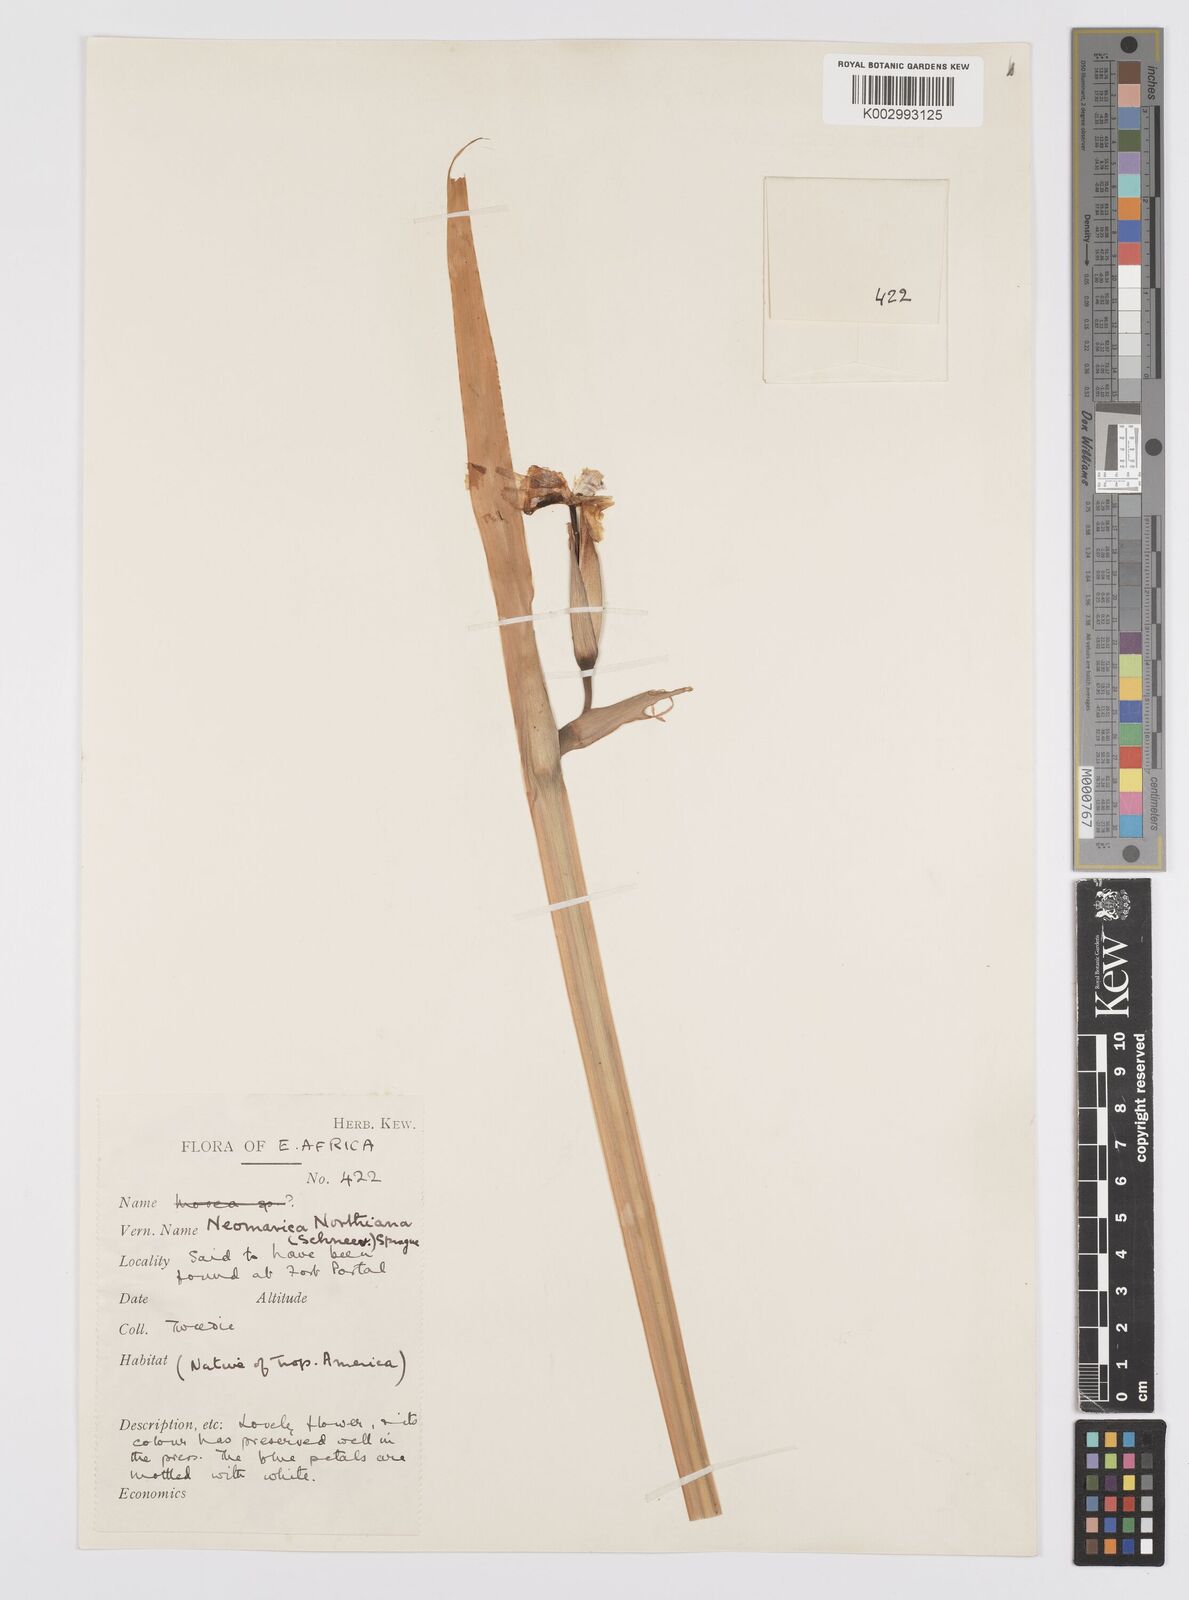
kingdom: Plantae
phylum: Tracheophyta
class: Liliopsida
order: Asparagales
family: Iridaceae
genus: Trimezia
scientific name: Trimezia northiana
